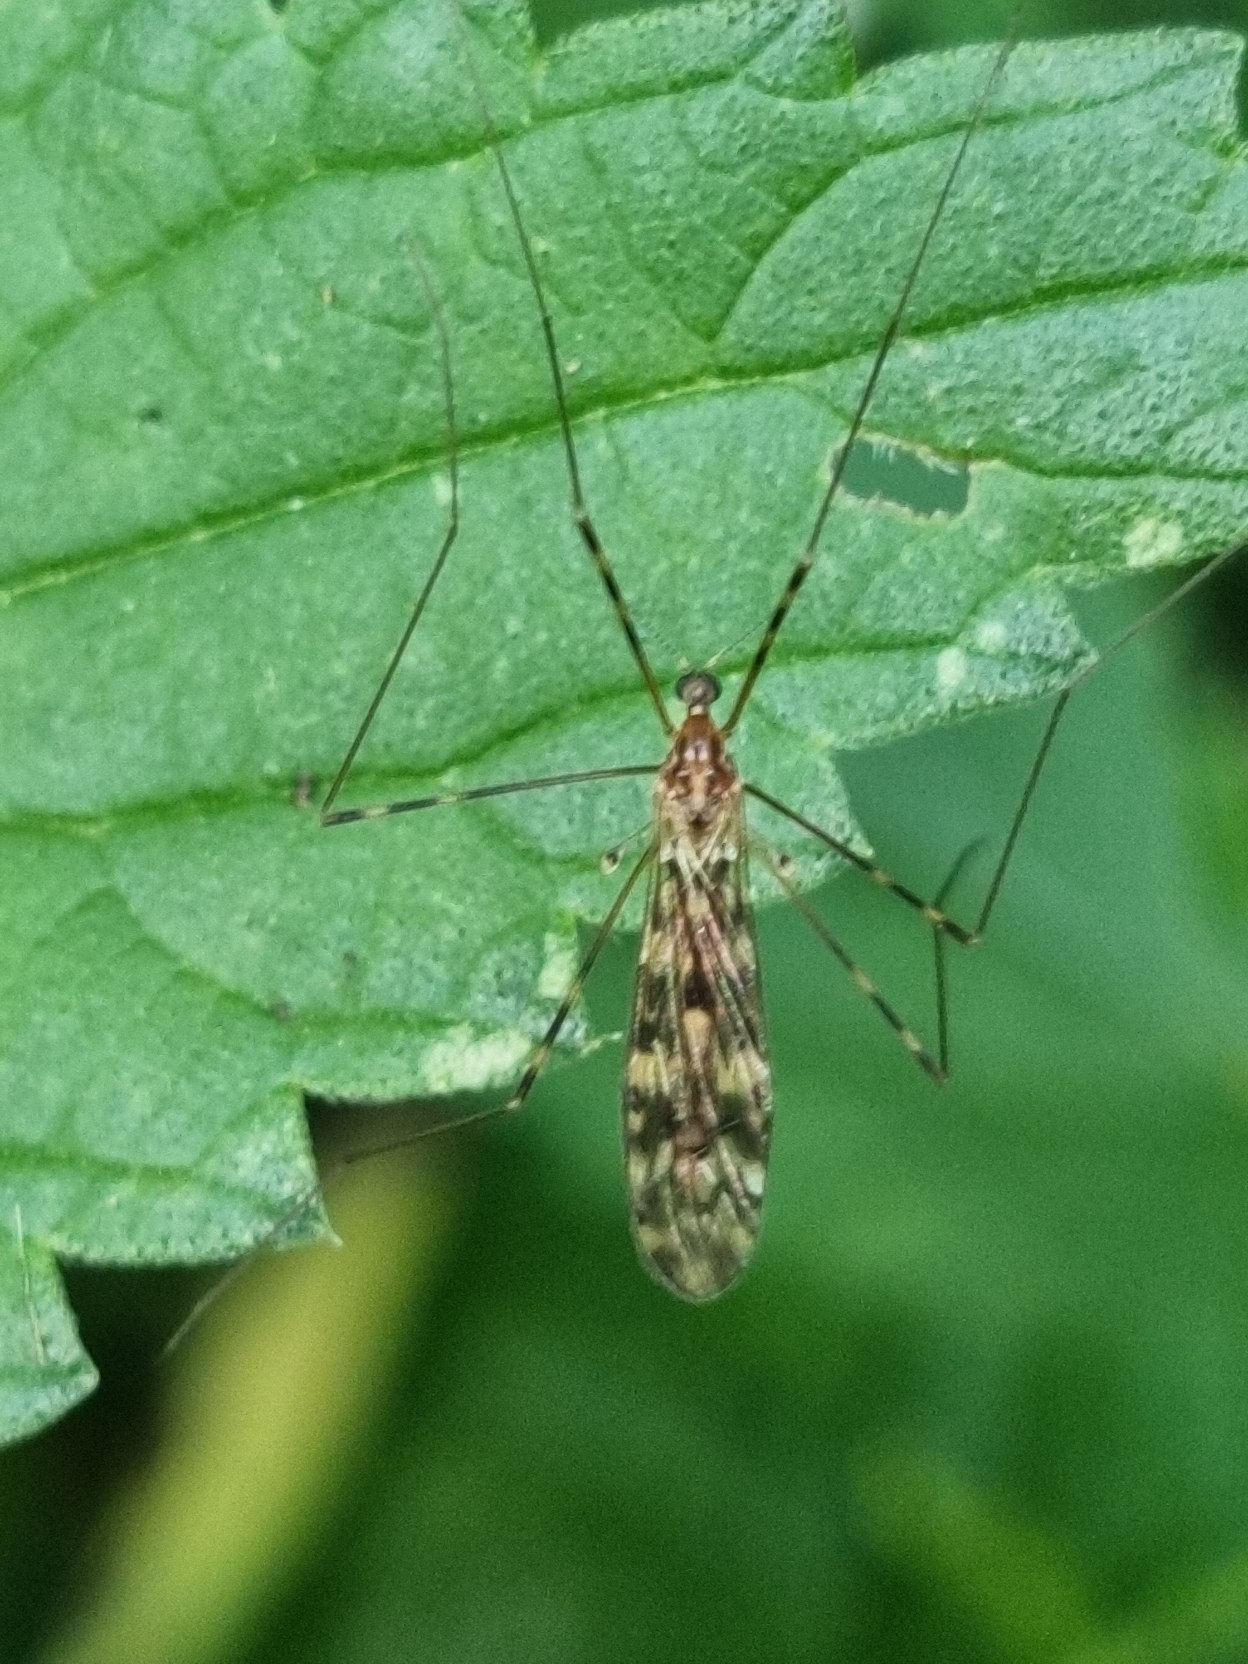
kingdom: Animalia
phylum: Arthropoda
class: Insecta
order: Diptera
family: Limoniidae
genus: Limonia
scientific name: Limonia nubeculosa
